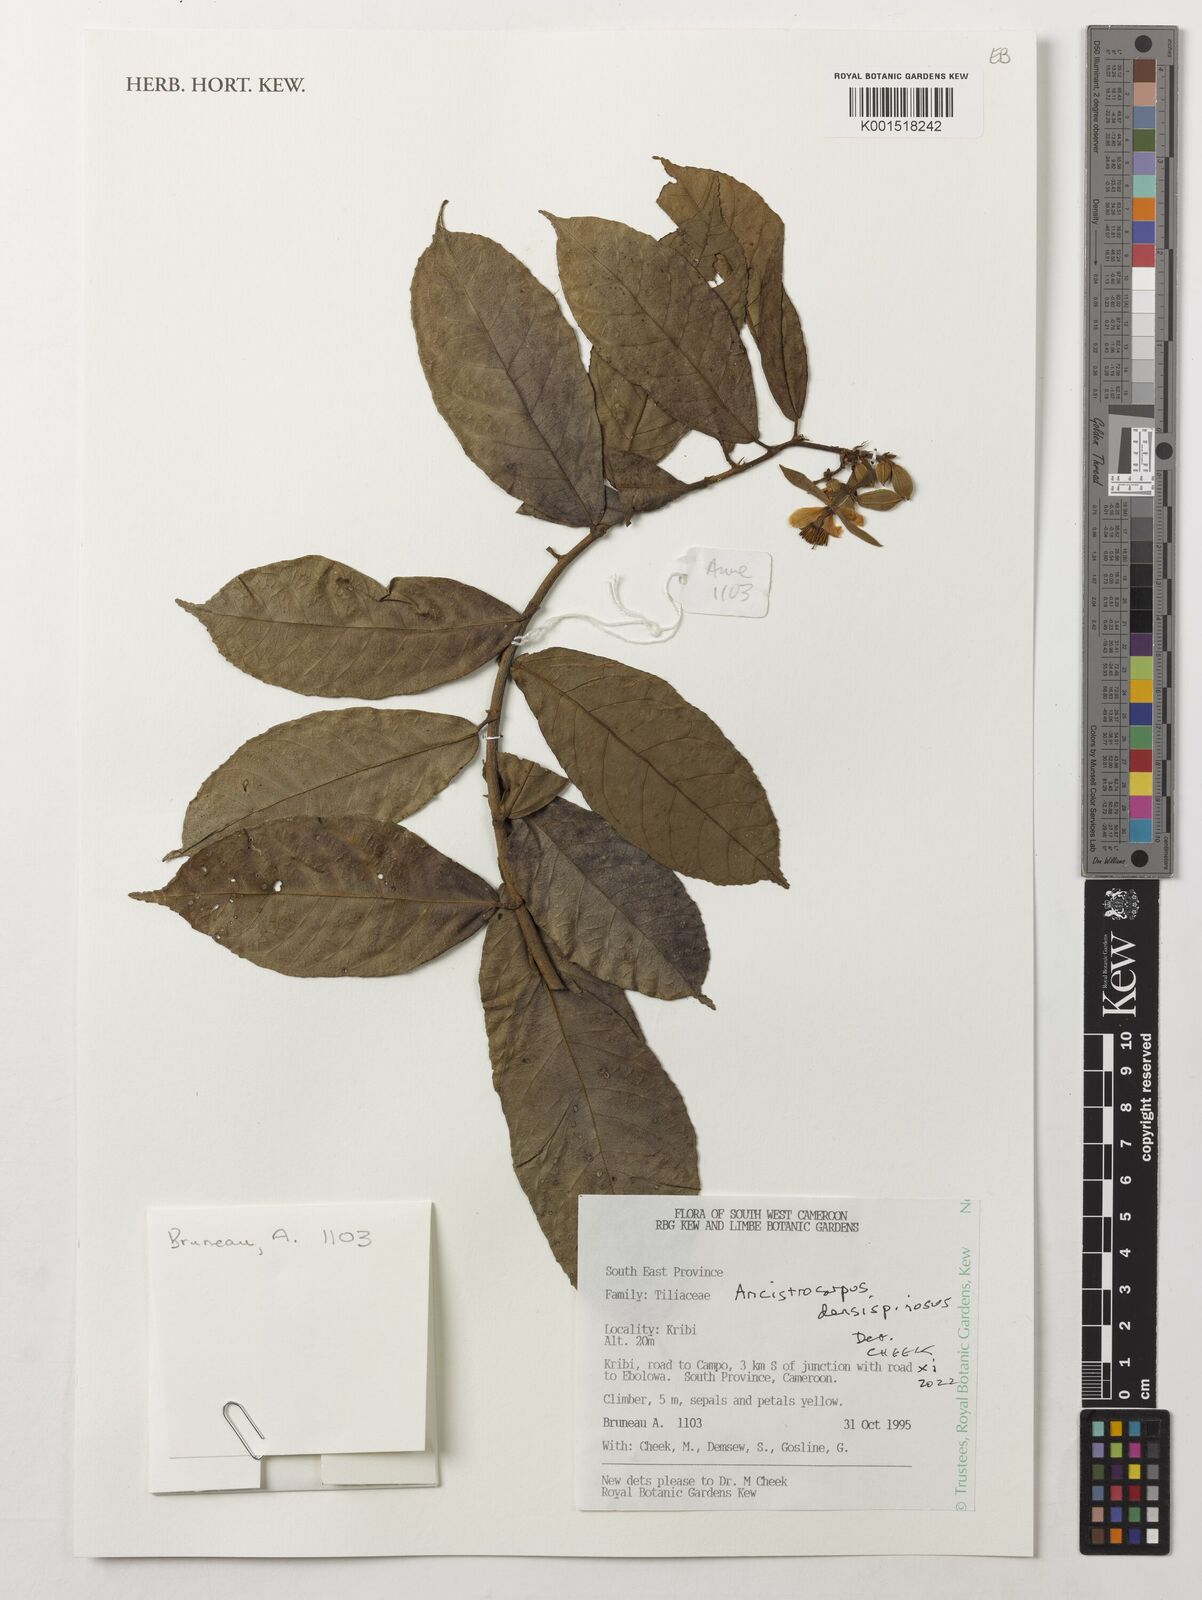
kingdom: Plantae
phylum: Tracheophyta
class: Magnoliopsida
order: Malvales
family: Malvaceae
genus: Ancistrocarpus
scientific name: Ancistrocarpus densispinosus
